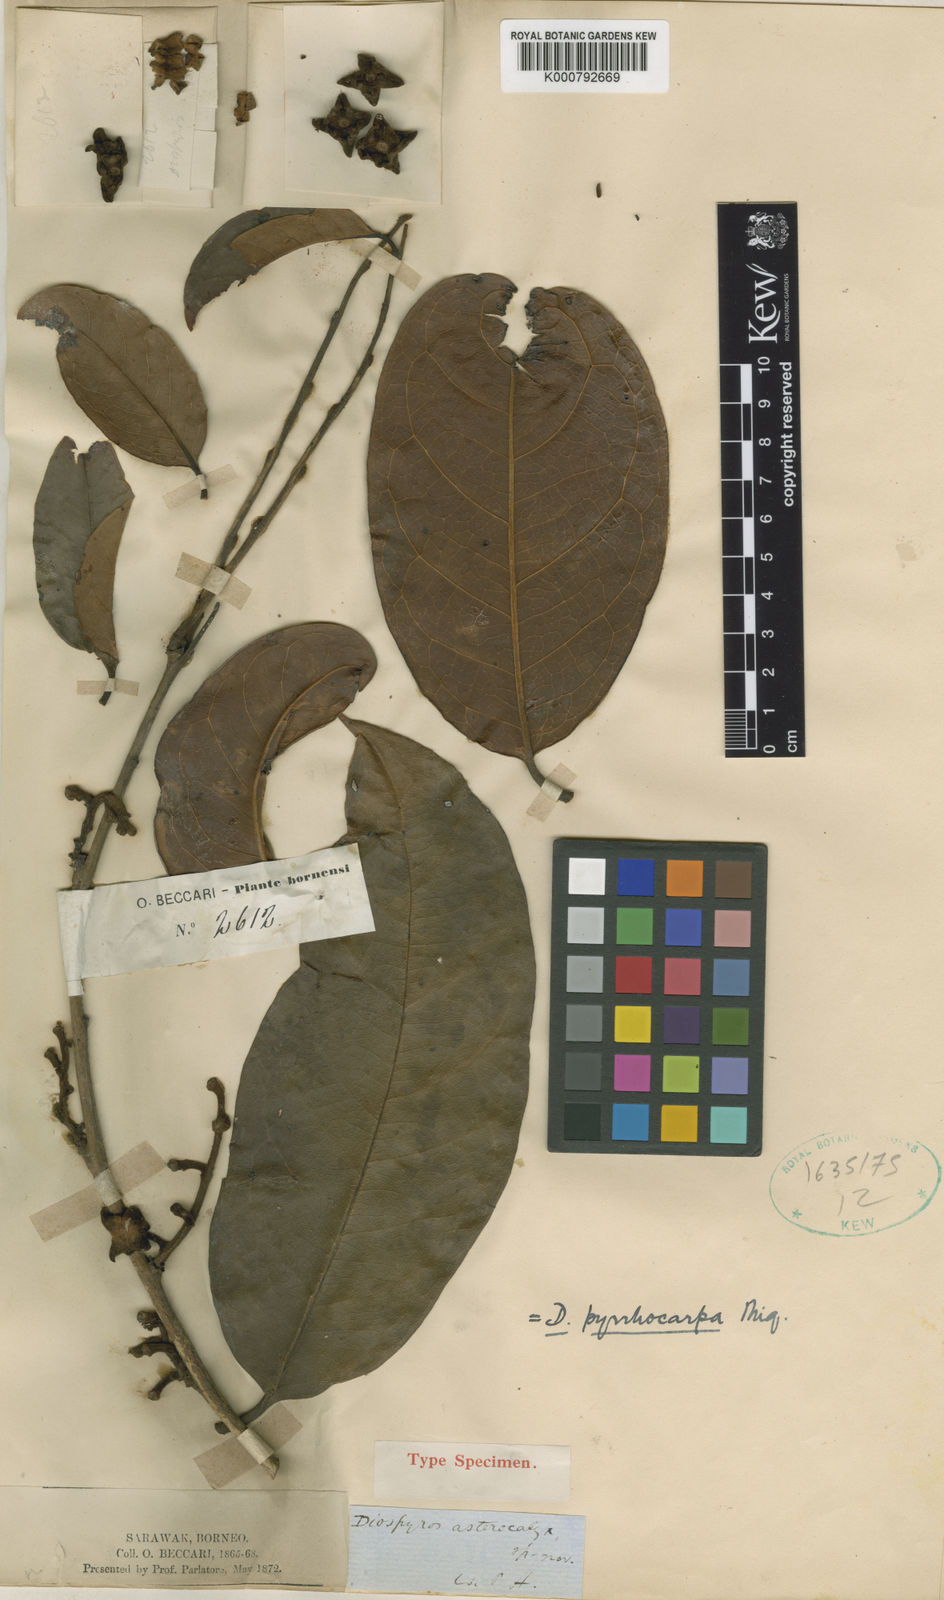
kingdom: Plantae
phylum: Tracheophyta
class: Magnoliopsida
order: Ericales
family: Ebenaceae
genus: Diospyros
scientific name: Diospyros pyrrhocarpa
